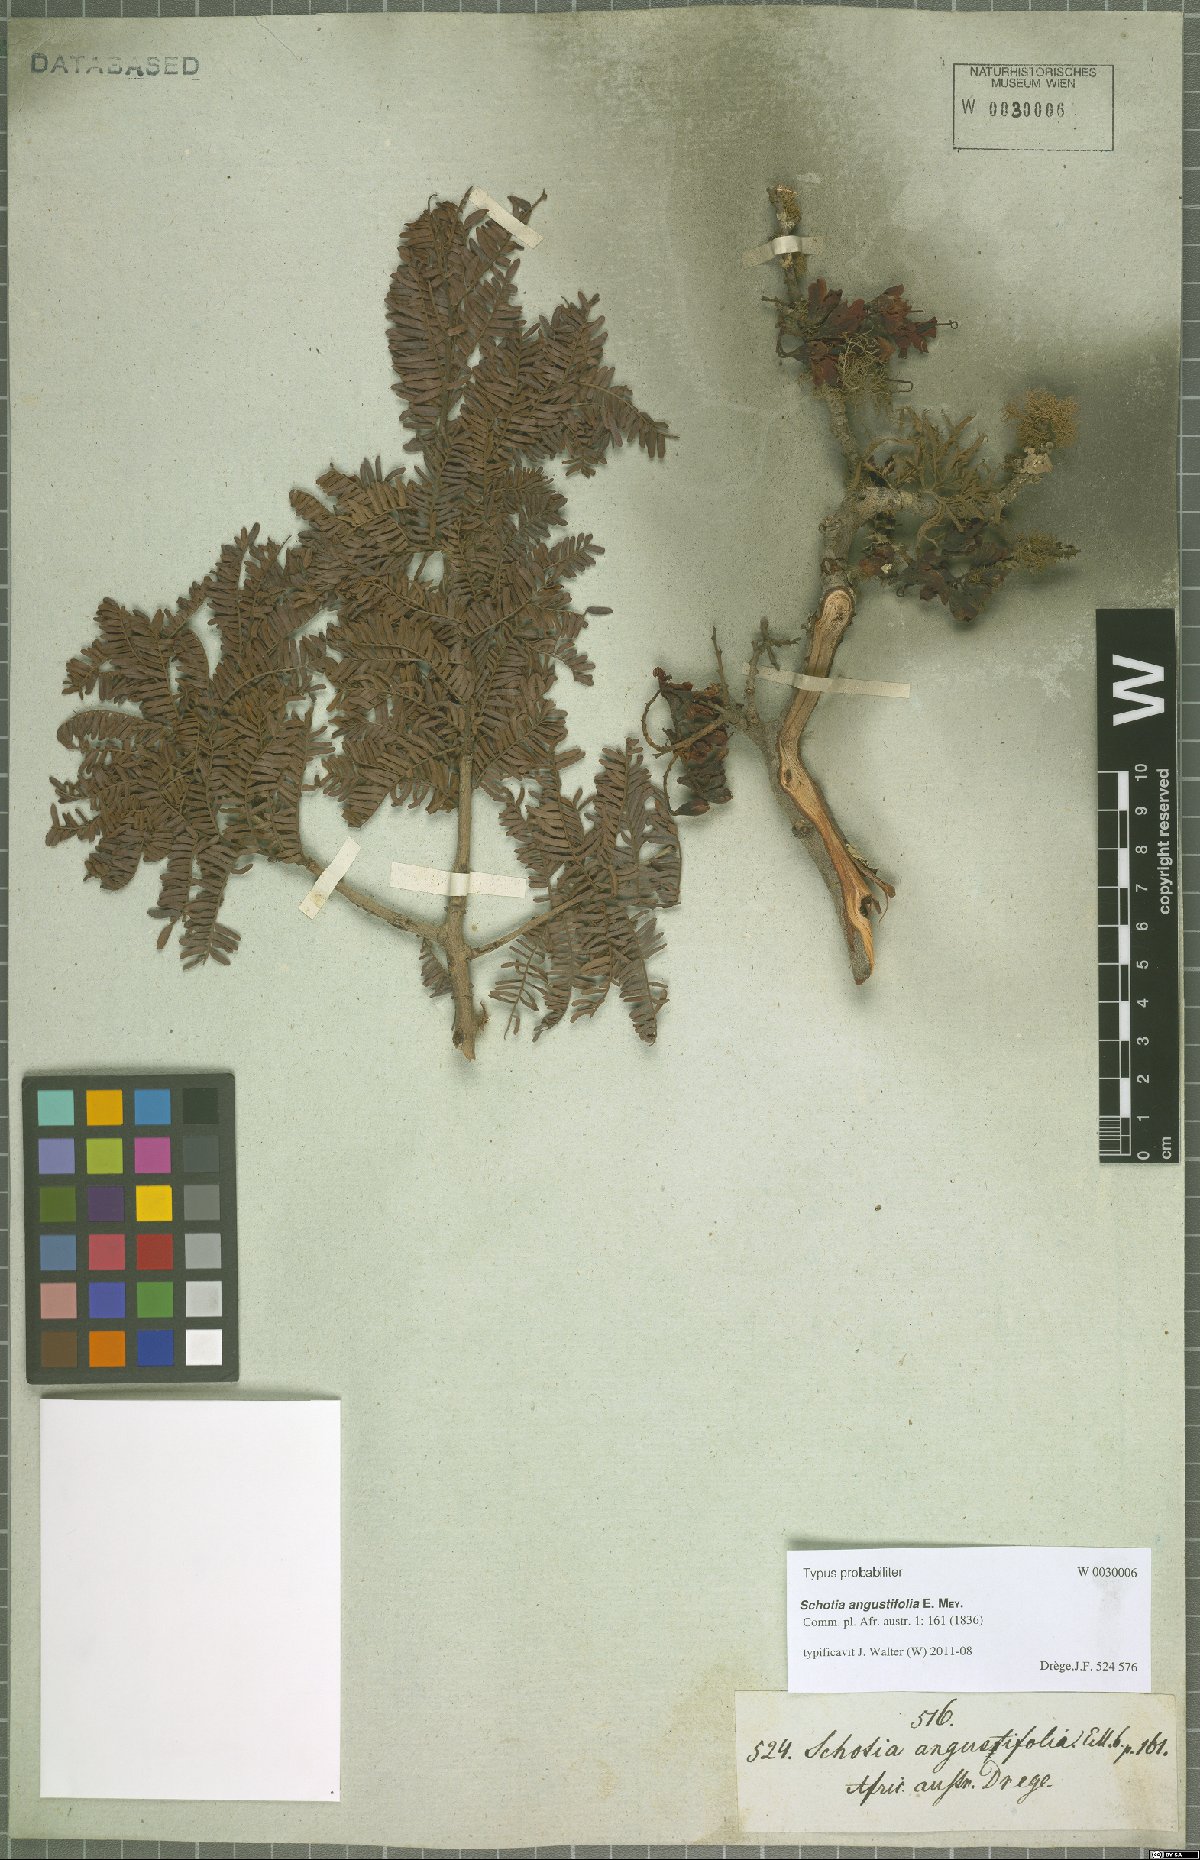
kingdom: Plantae
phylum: Tracheophyta
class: Magnoliopsida
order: Fabales
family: Fabaceae
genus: Schotia
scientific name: Schotia afra
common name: Hottentot's bean
